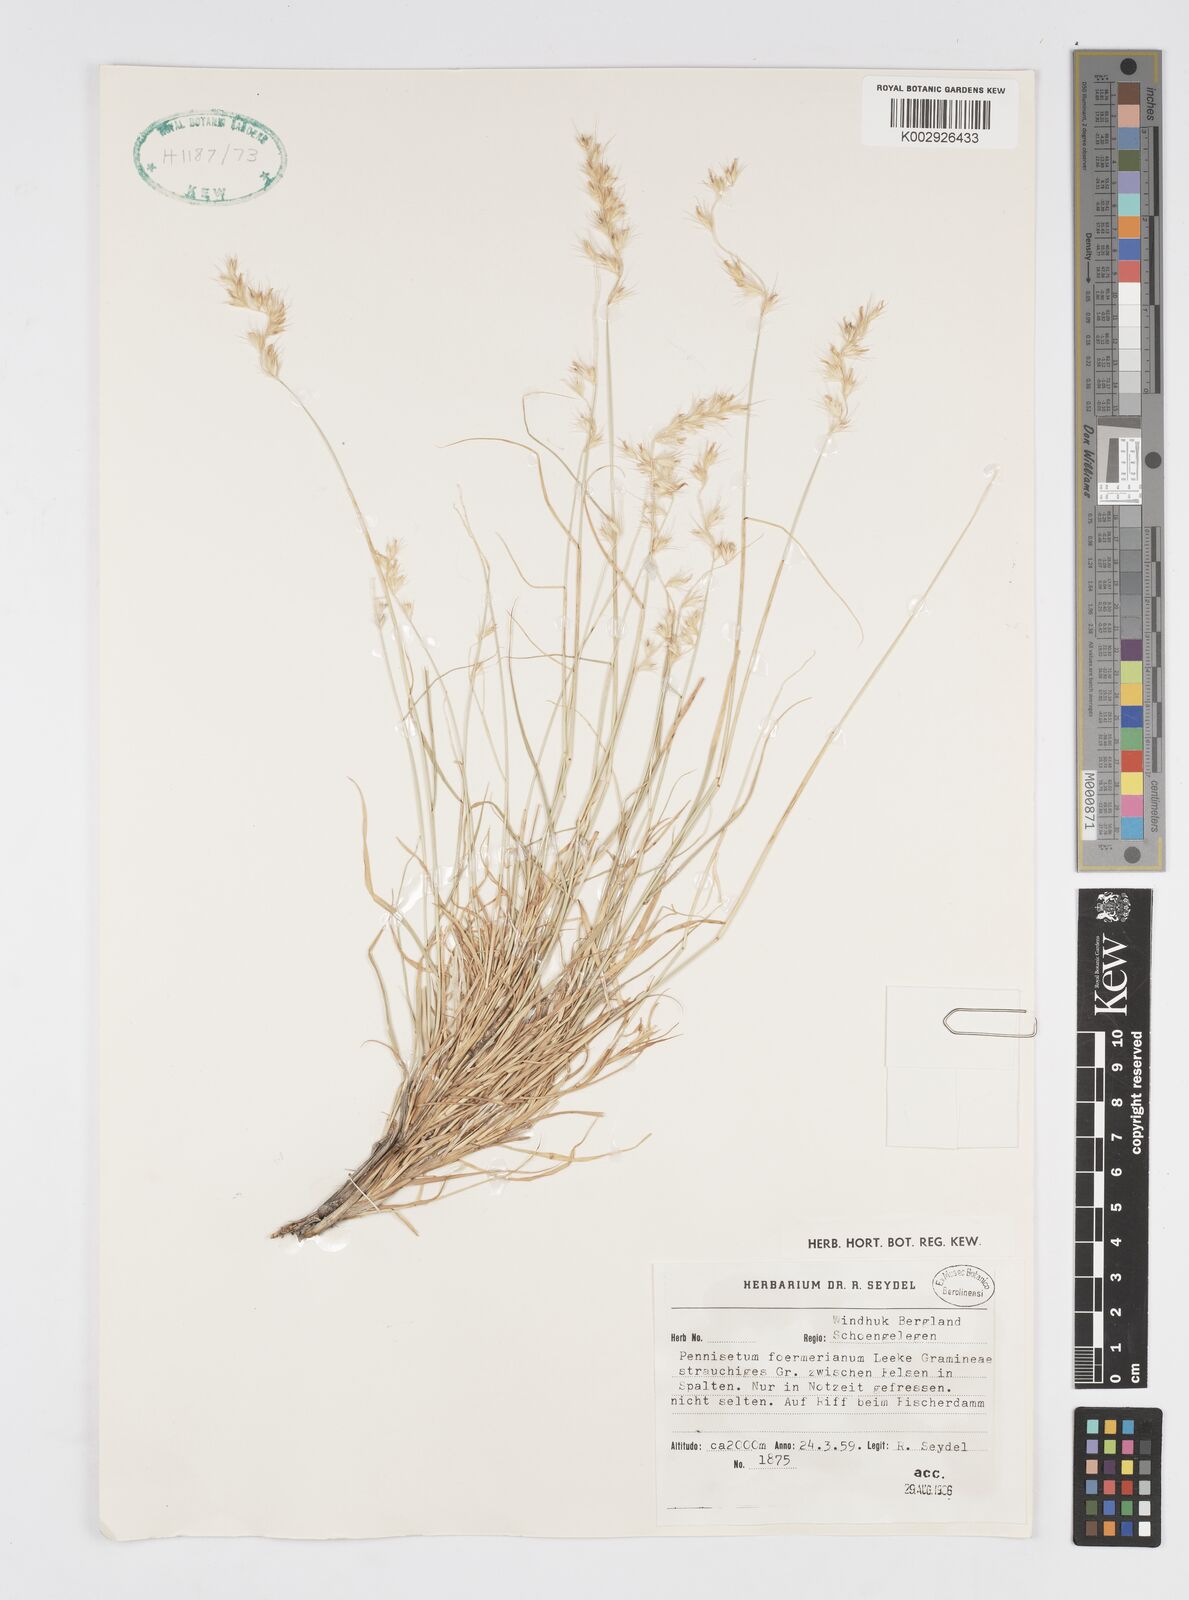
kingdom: Plantae
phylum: Tracheophyta
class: Liliopsida
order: Poales
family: Poaceae
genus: Cenchrus
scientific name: Cenchrus foermerianus
